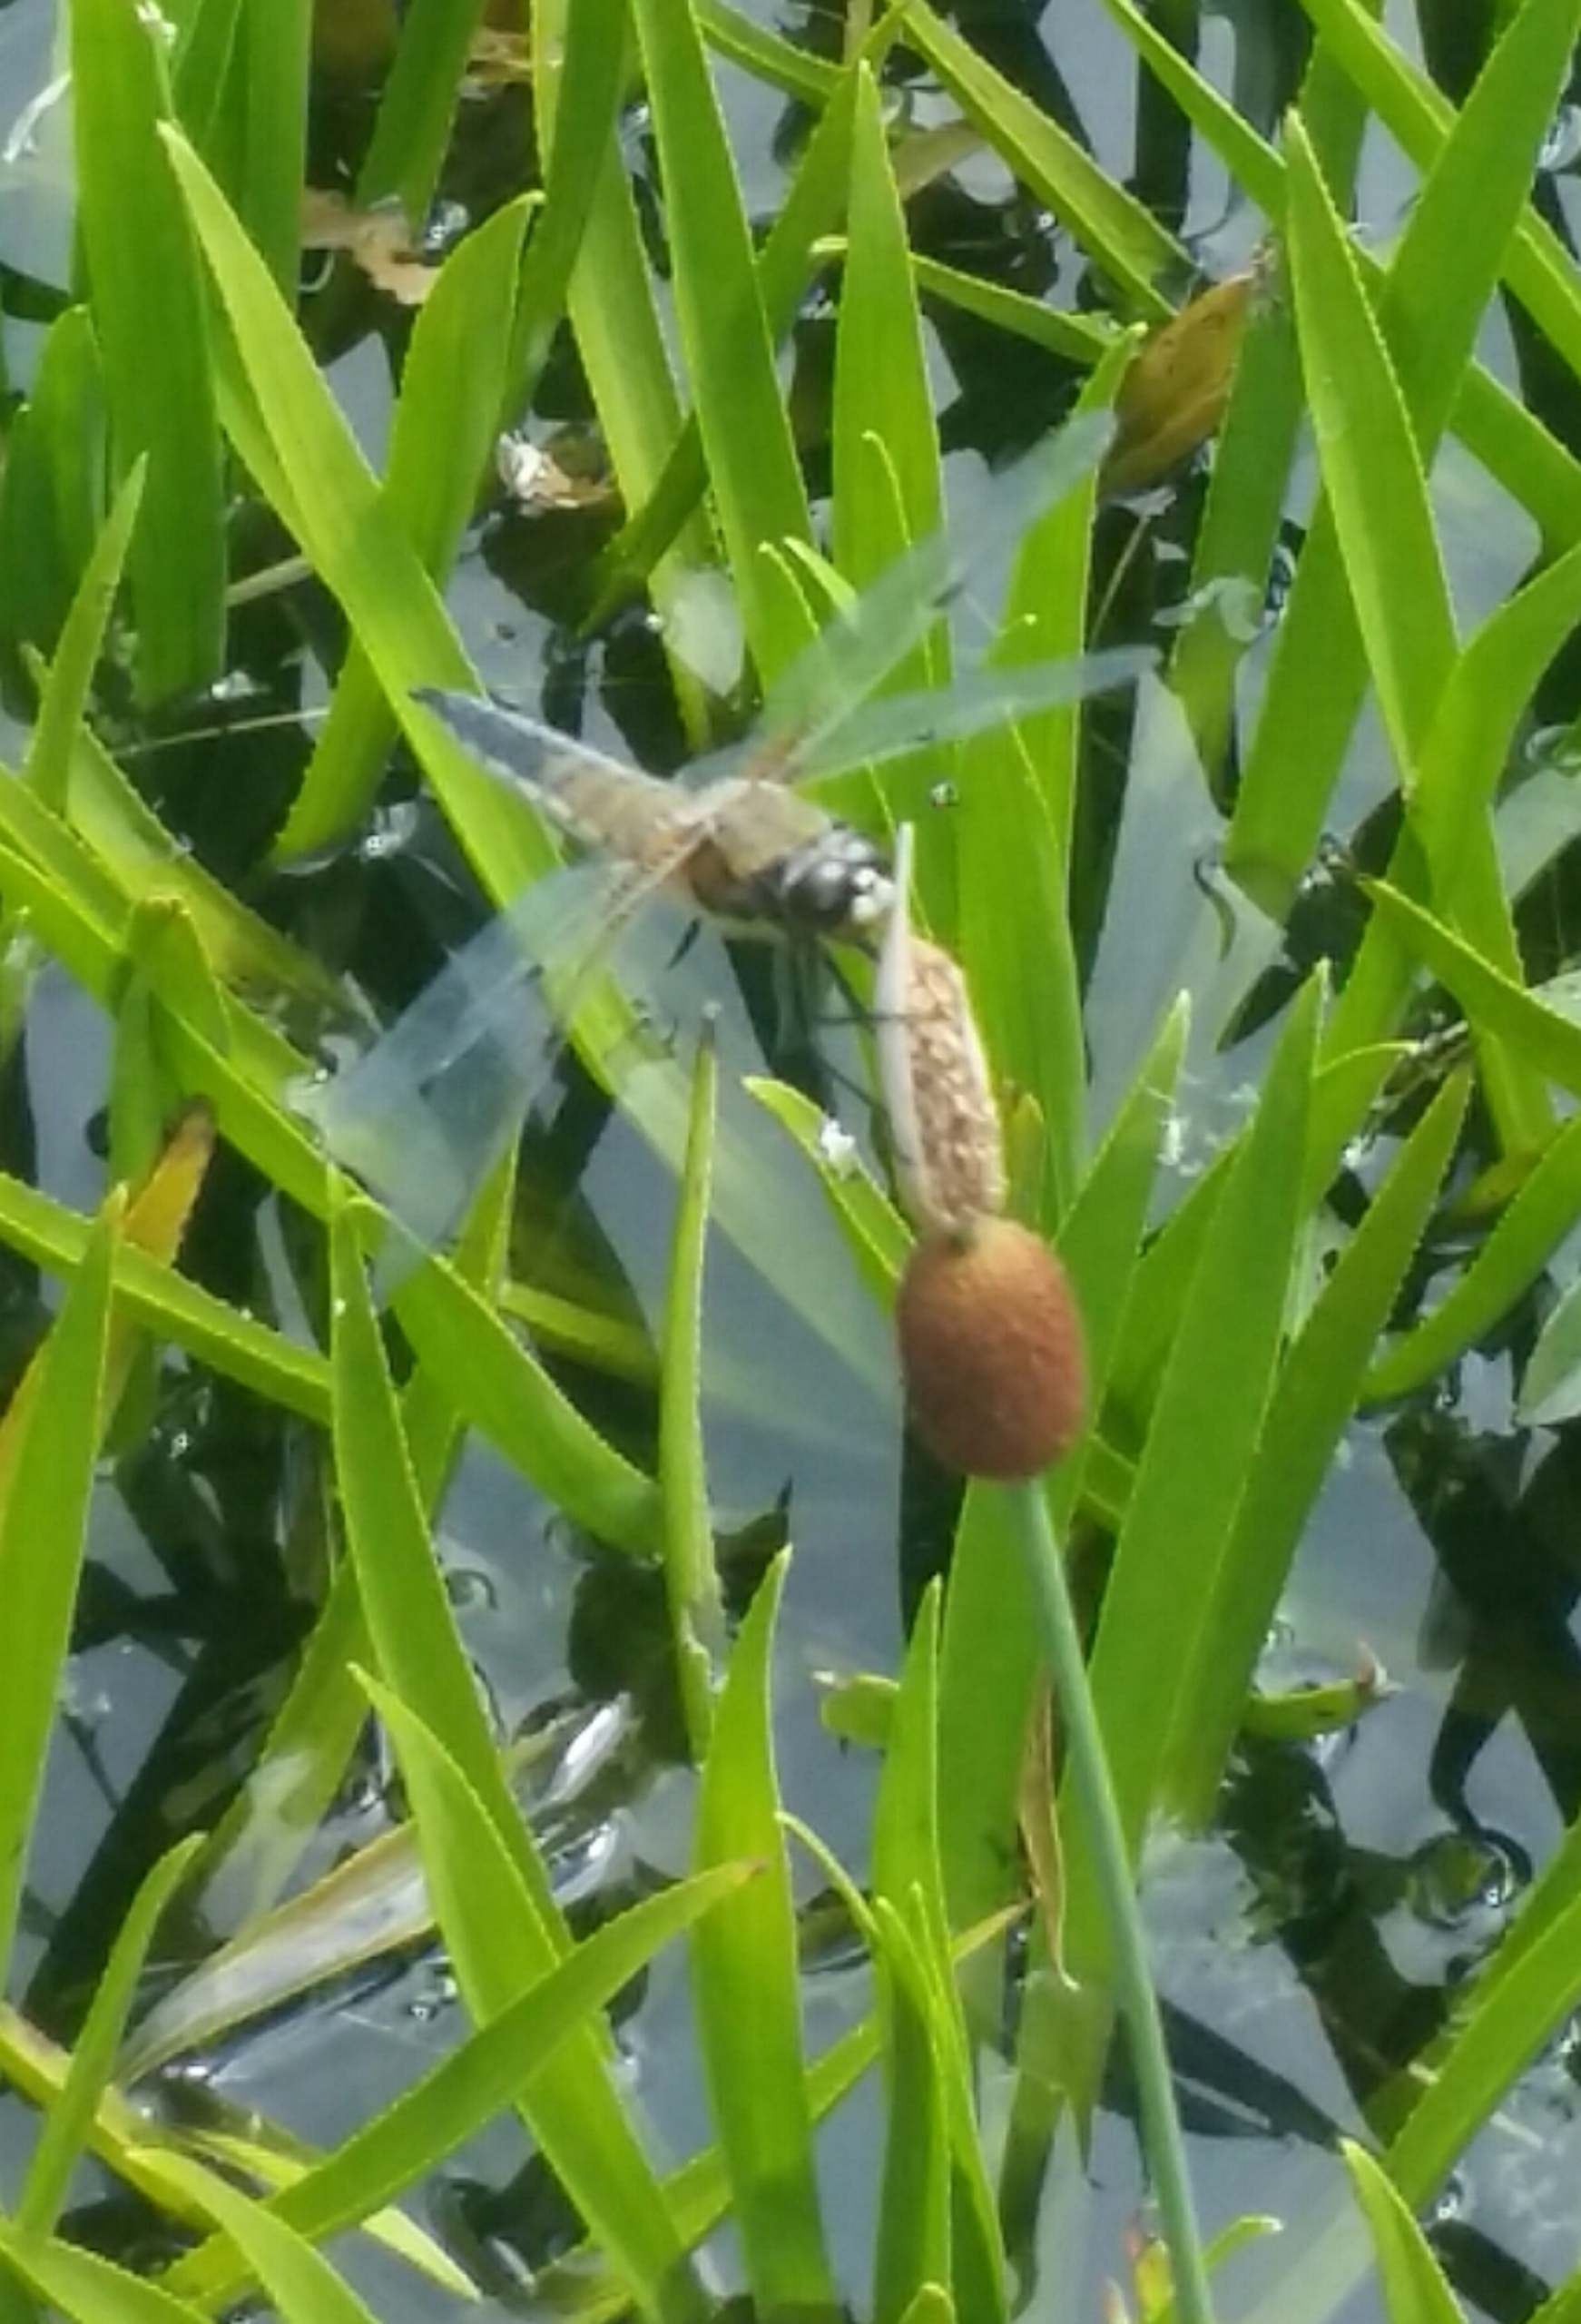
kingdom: Animalia
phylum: Arthropoda
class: Insecta
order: Odonata
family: Libellulidae
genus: Libellula
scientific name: Libellula quadrimaculata
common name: Fireplettet libel
